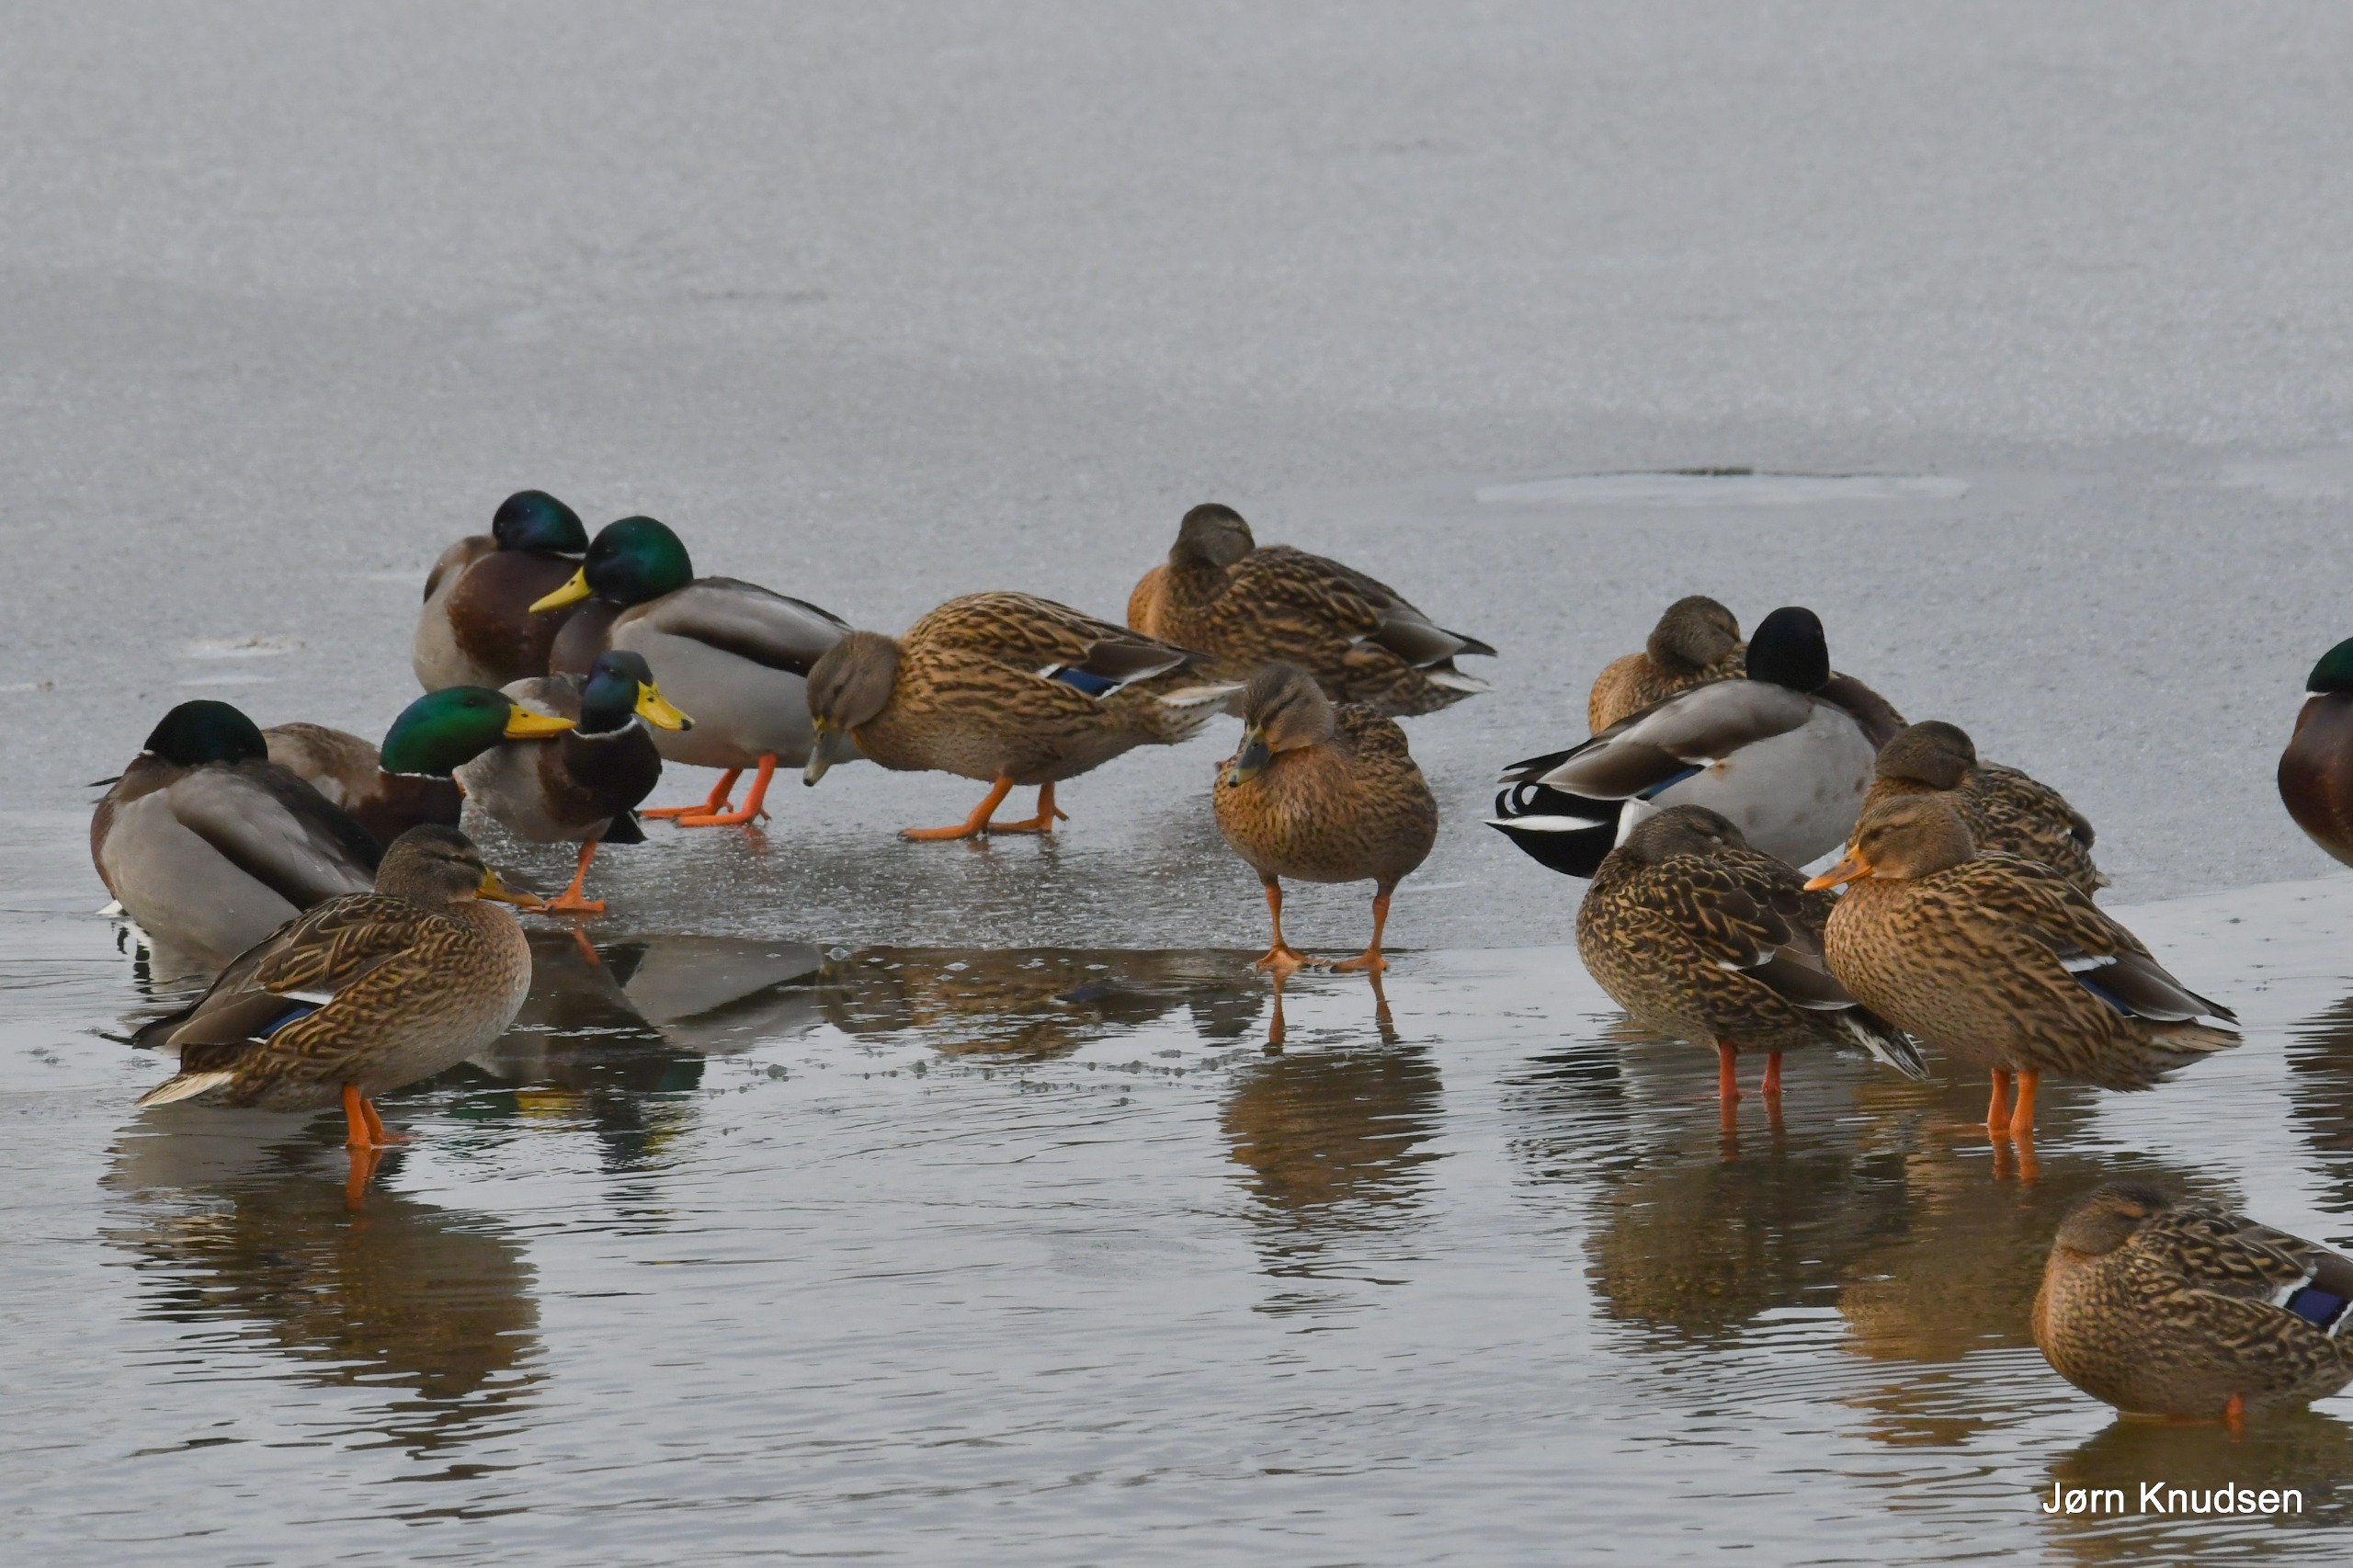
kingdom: Animalia
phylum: Chordata
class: Aves
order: Anseriformes
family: Anatidae
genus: Anas
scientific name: Anas platyrhynchos
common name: Gråand
